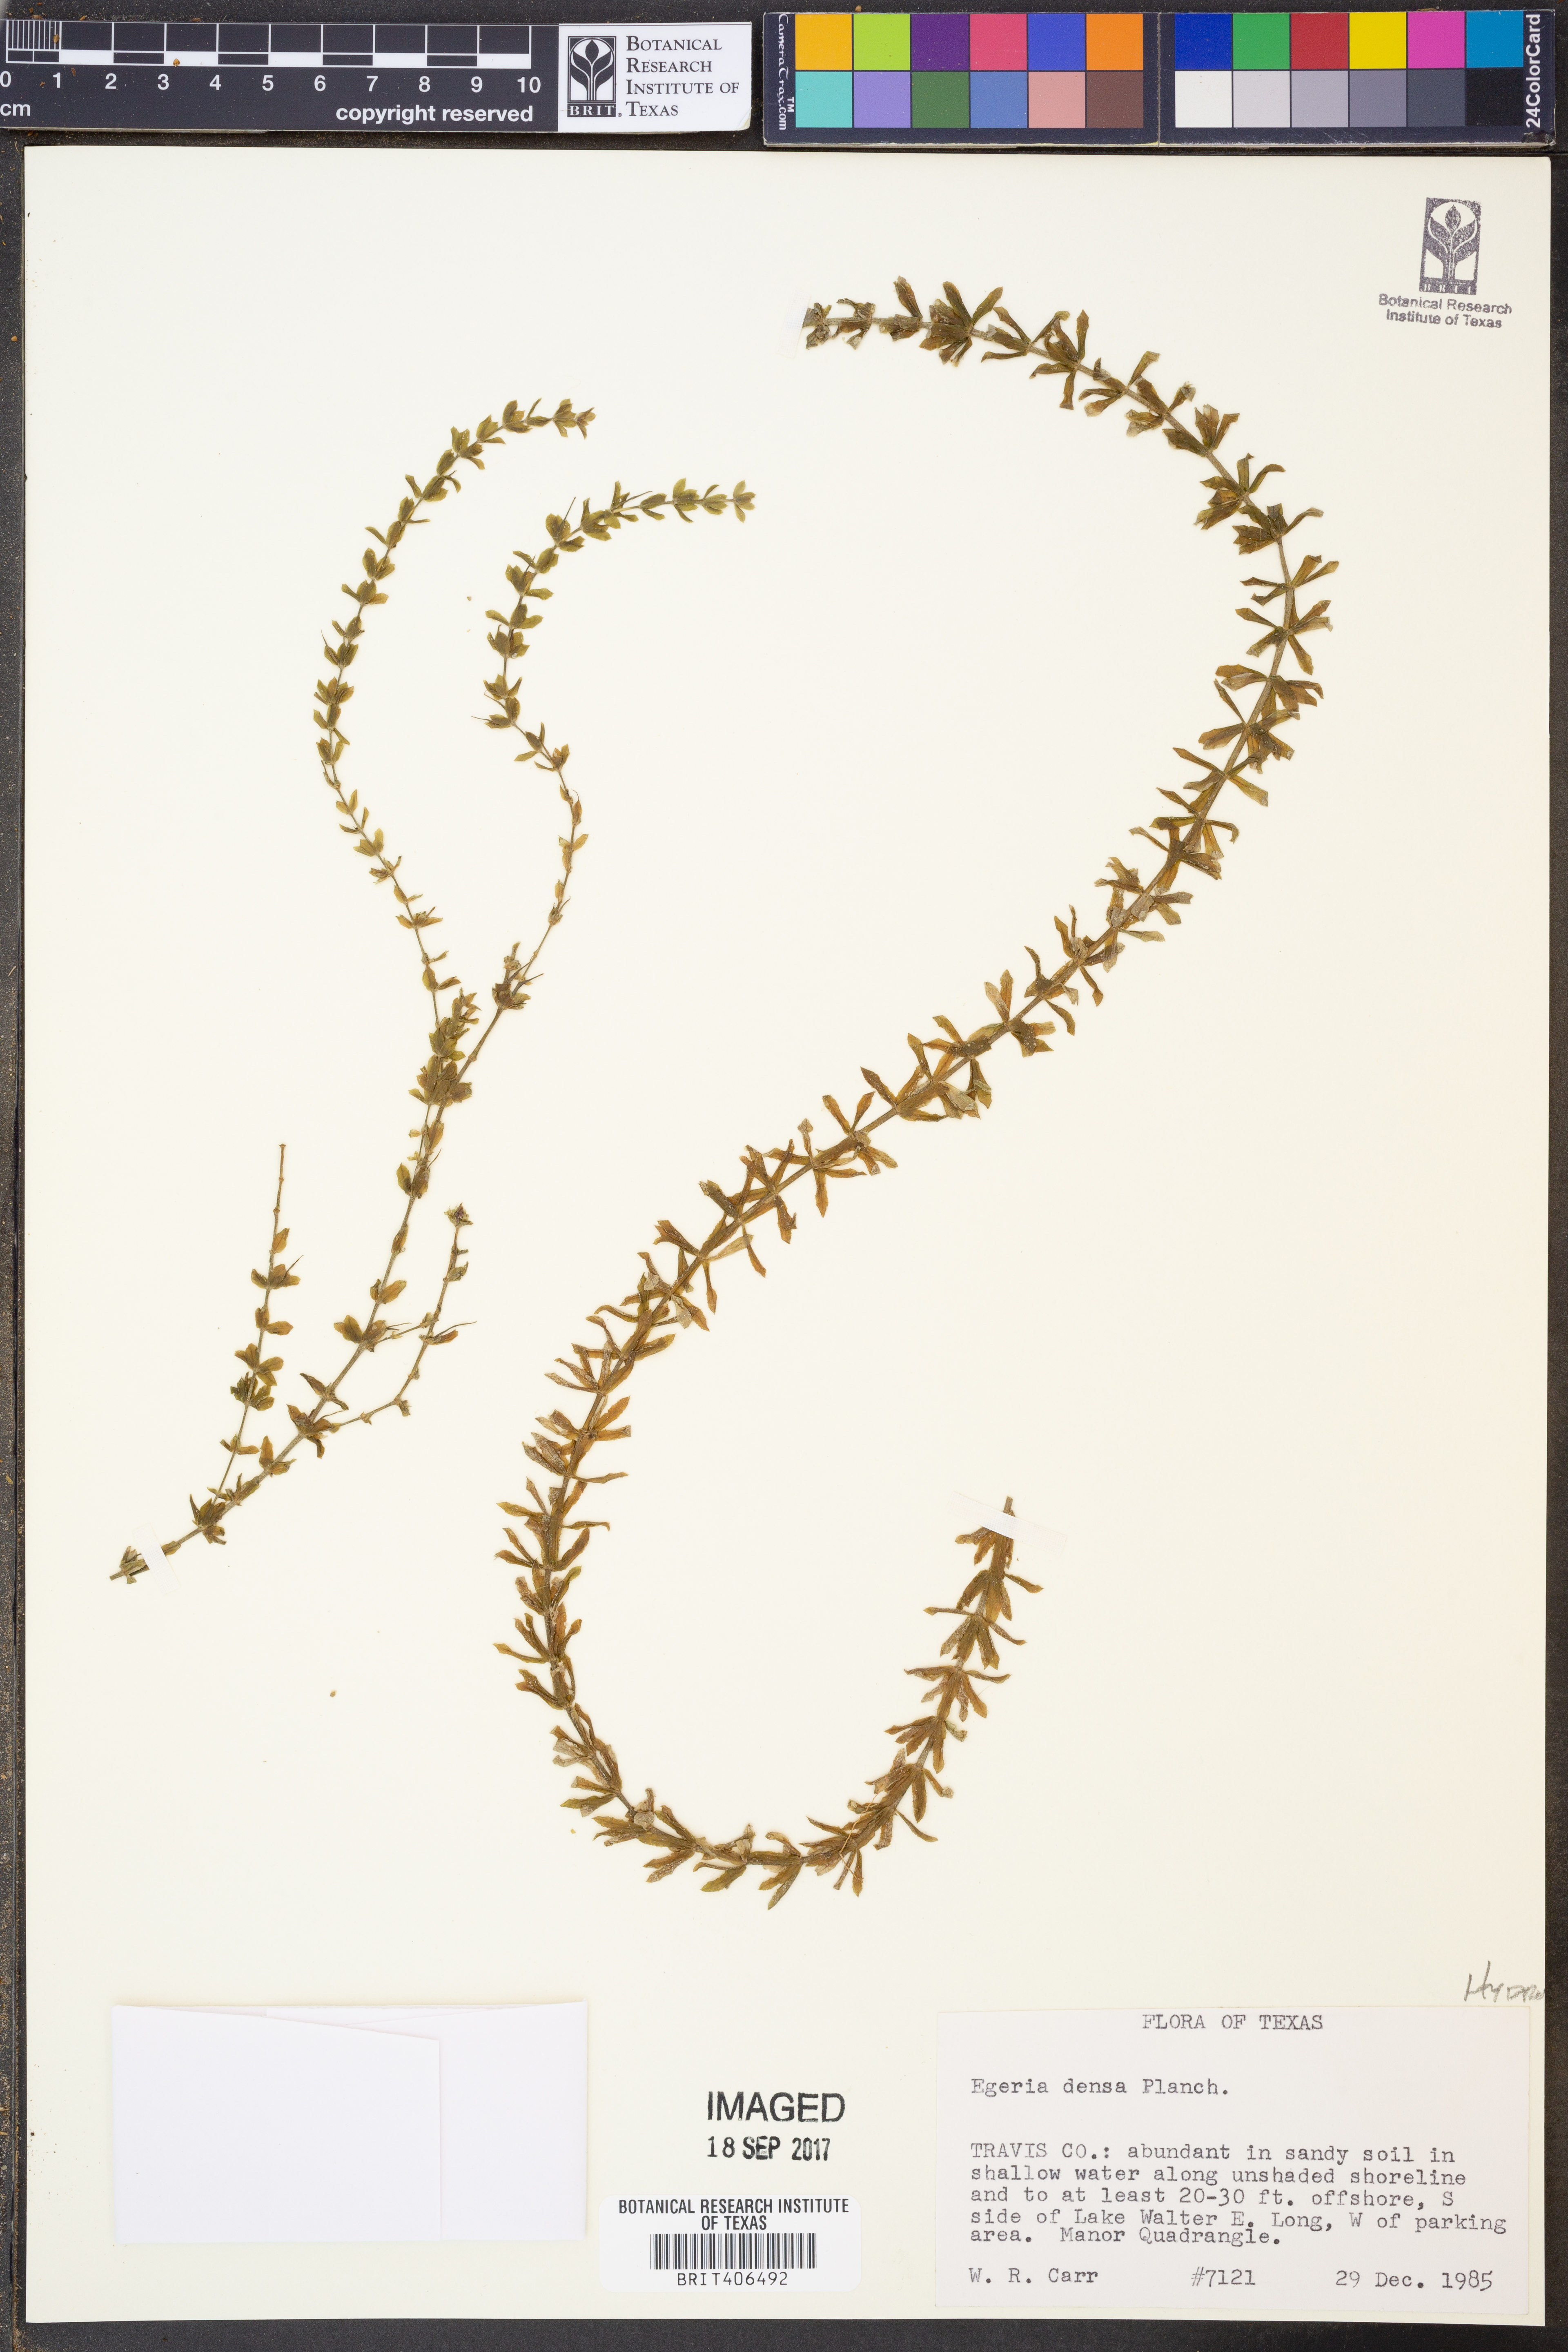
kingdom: Plantae
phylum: Tracheophyta
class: Liliopsida
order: Alismatales
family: Hydrocharitaceae
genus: Elodea
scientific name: Elodea densa
